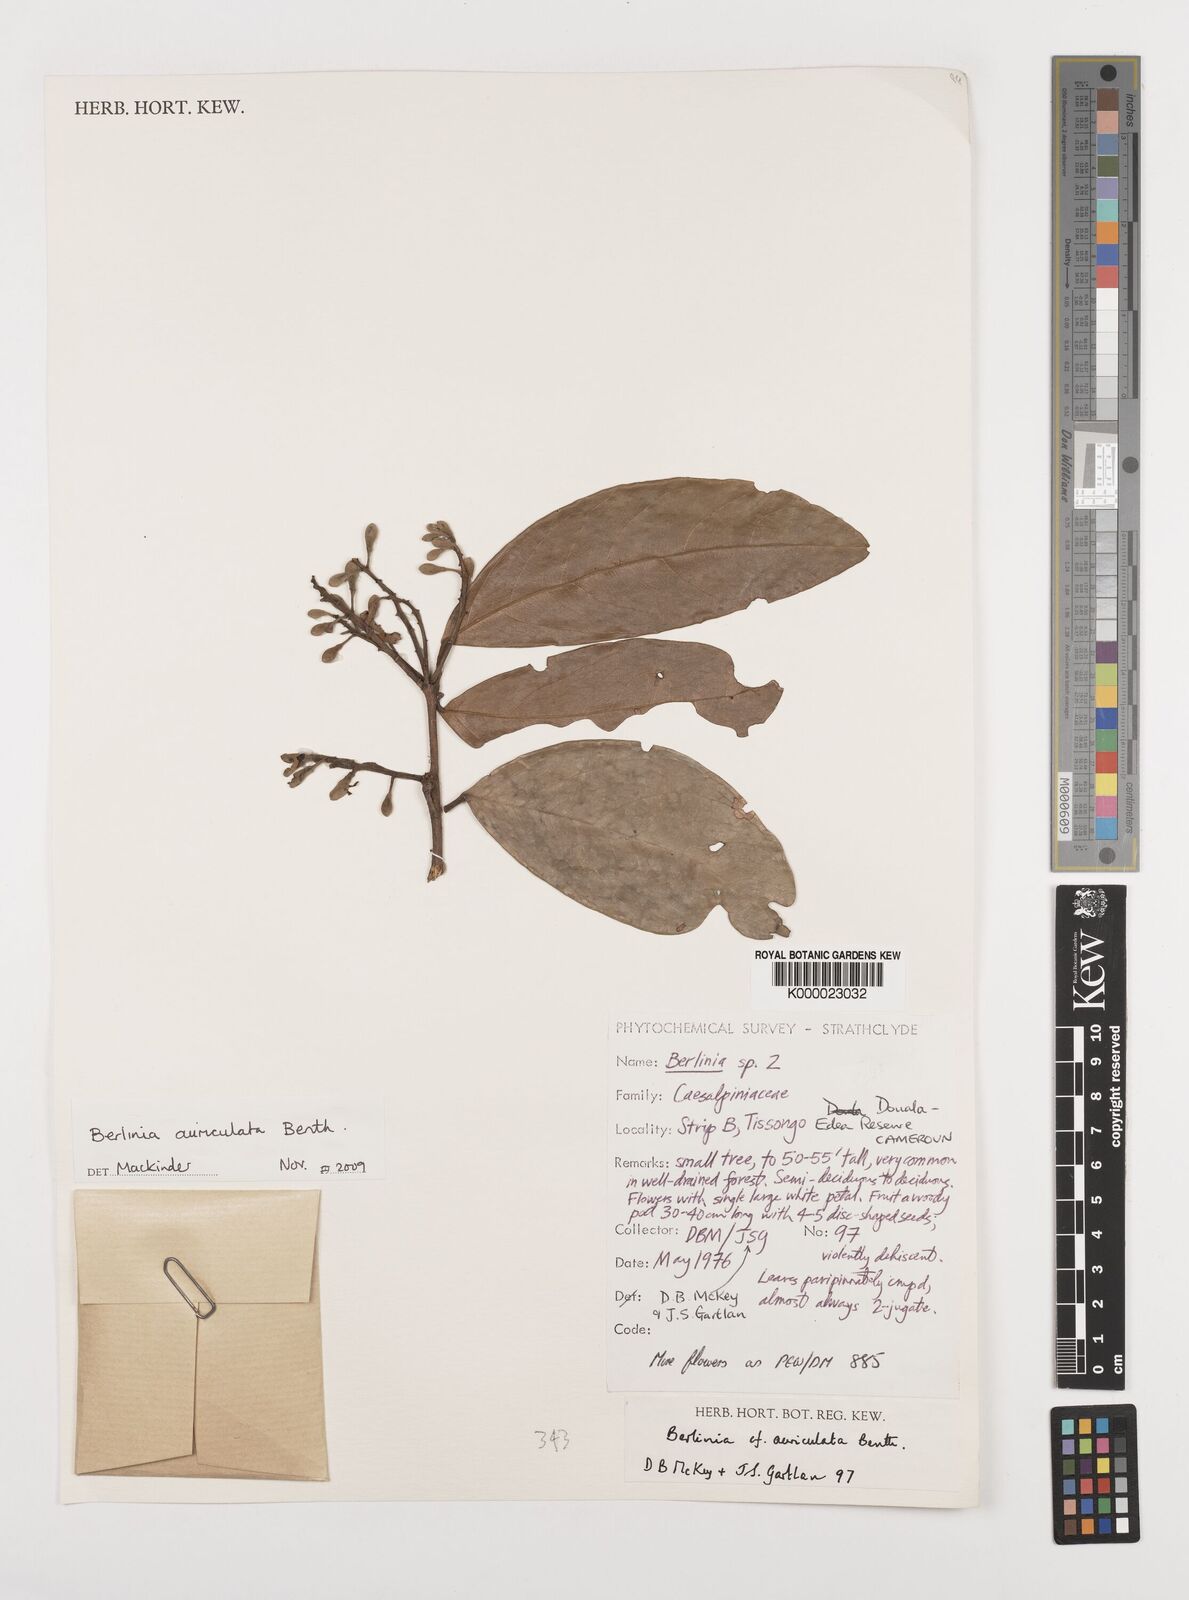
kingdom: Plantae
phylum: Tracheophyta
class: Magnoliopsida
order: Fabales
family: Fabaceae
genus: Berlinia
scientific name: Berlinia auriculata
